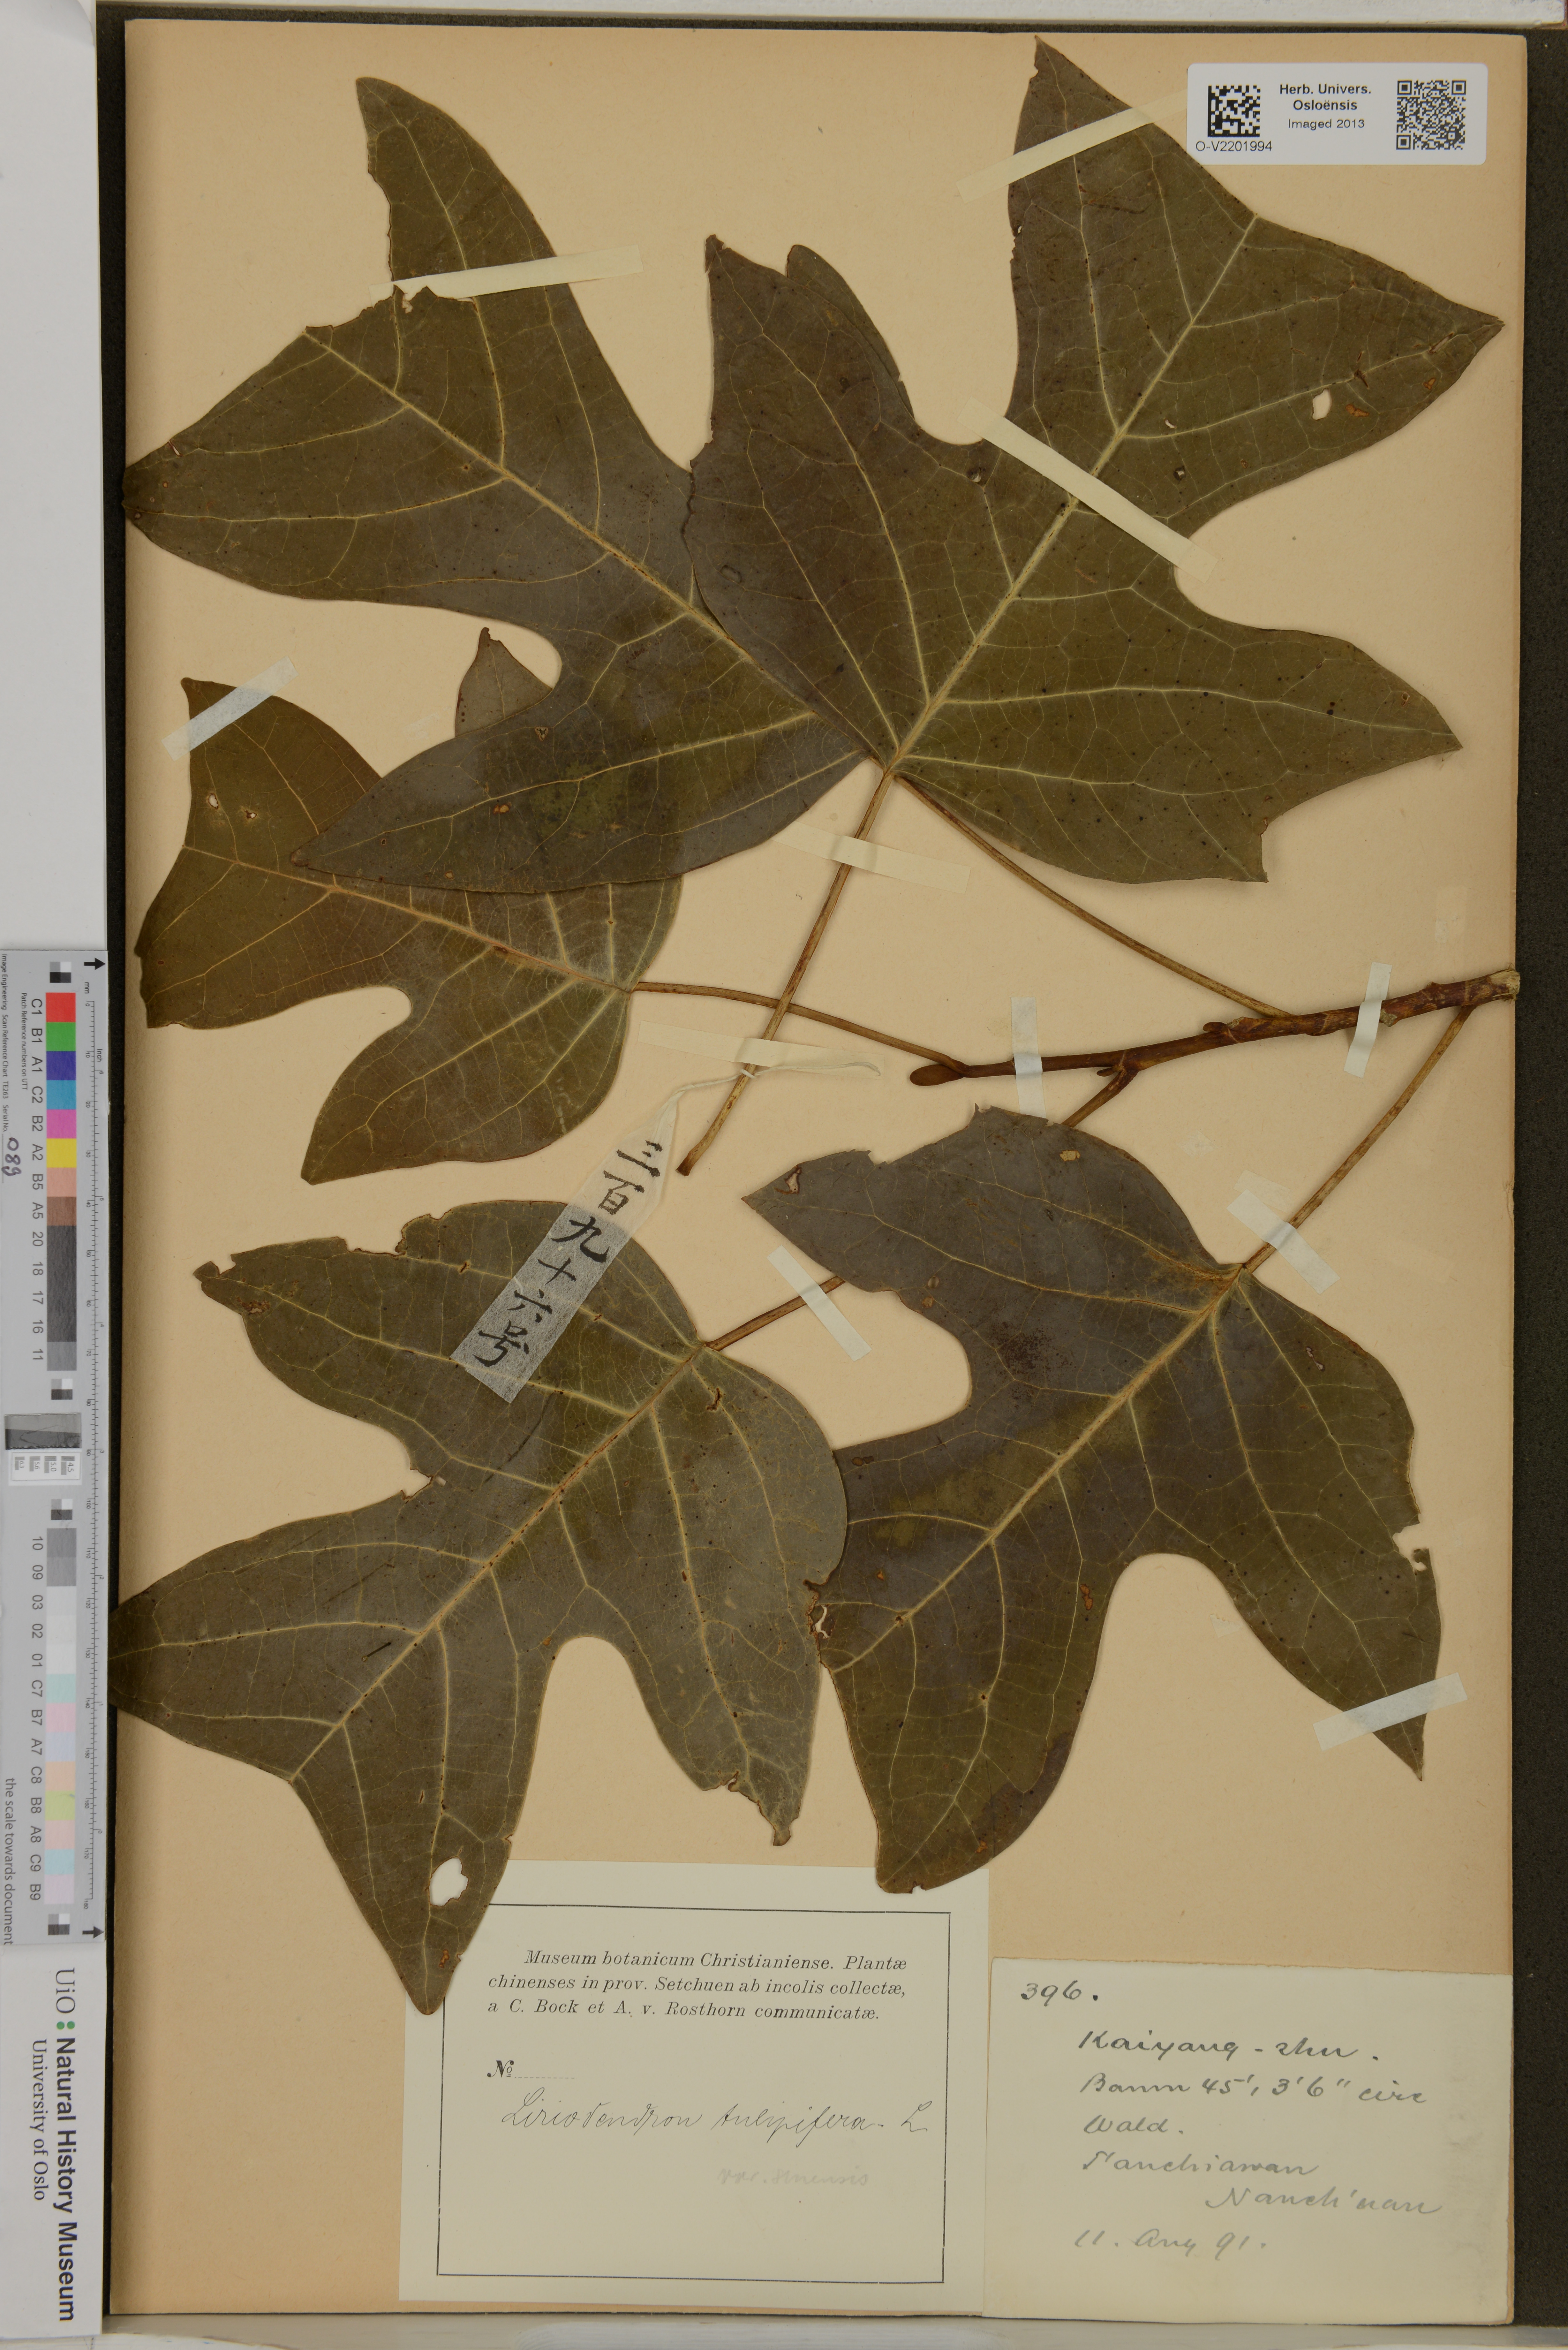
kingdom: Plantae
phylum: Tracheophyta
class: Magnoliopsida
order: Magnoliales
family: Magnoliaceae
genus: Liriodendron
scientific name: Liriodendron tulipifera
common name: Tulip tree
